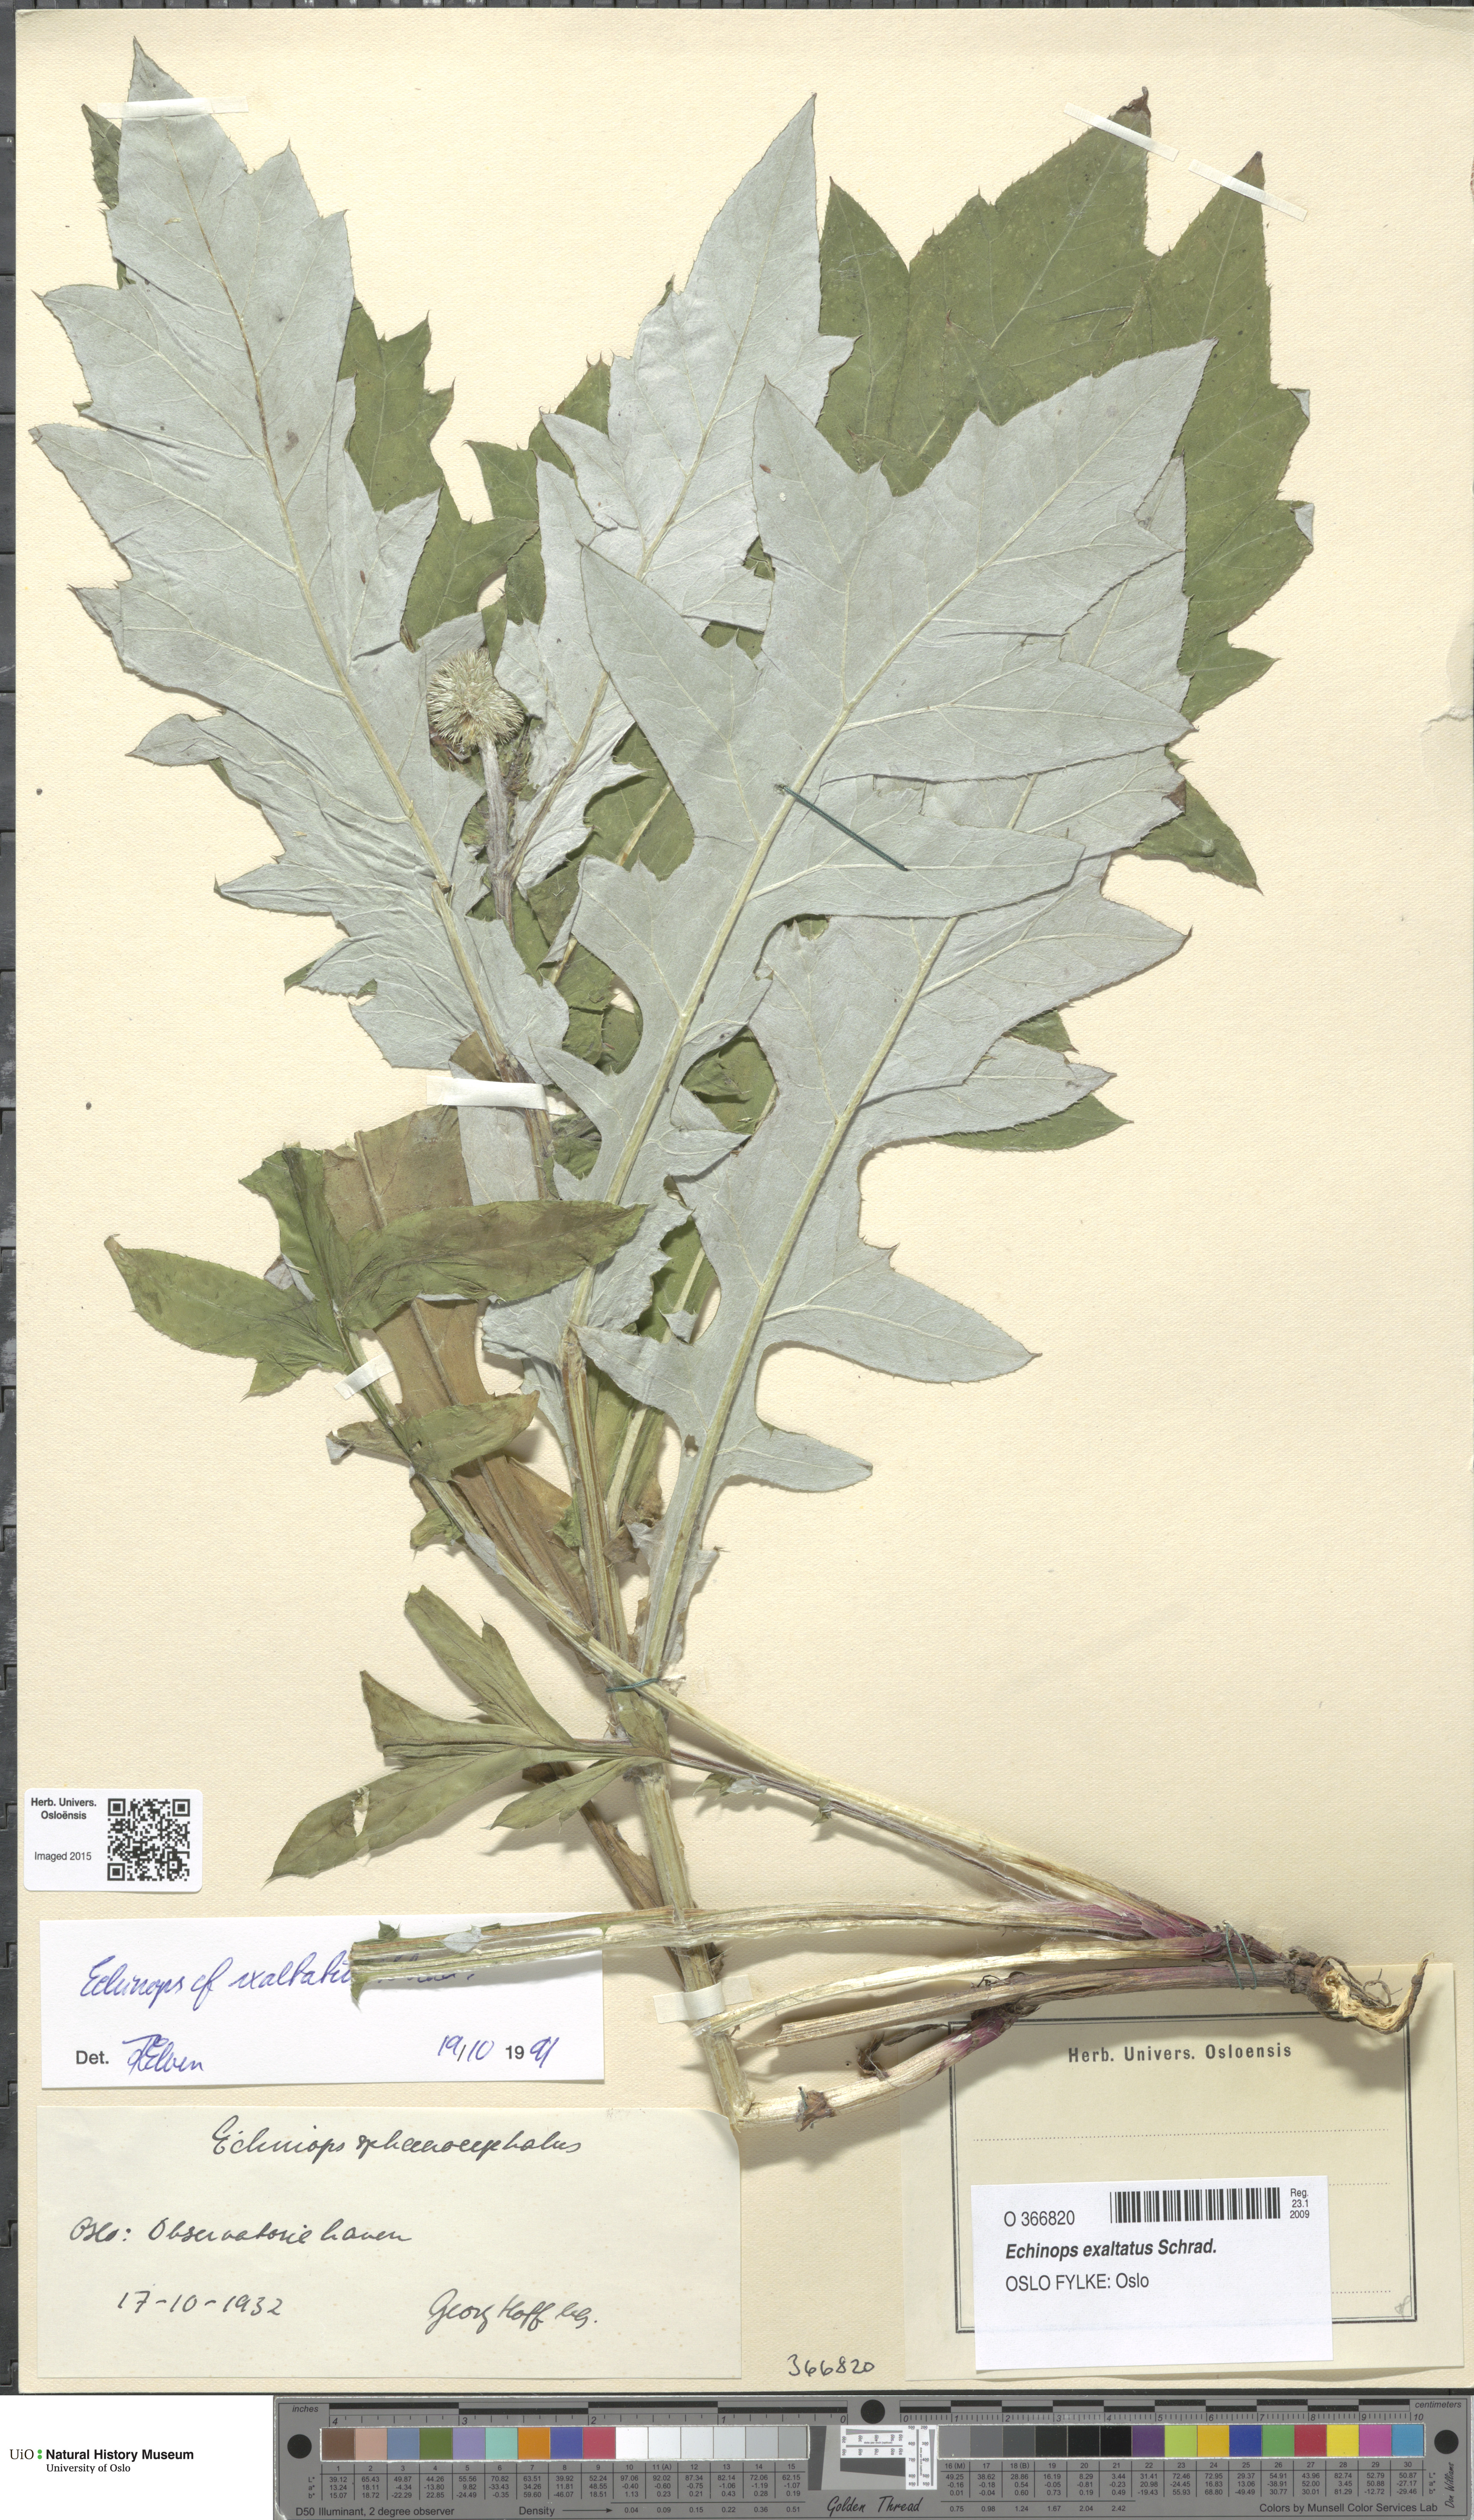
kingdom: Plantae
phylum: Tracheophyta
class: Magnoliopsida
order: Asterales
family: Asteraceae
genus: Echinops
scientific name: Echinops exaltatus
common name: Globe-thistle
